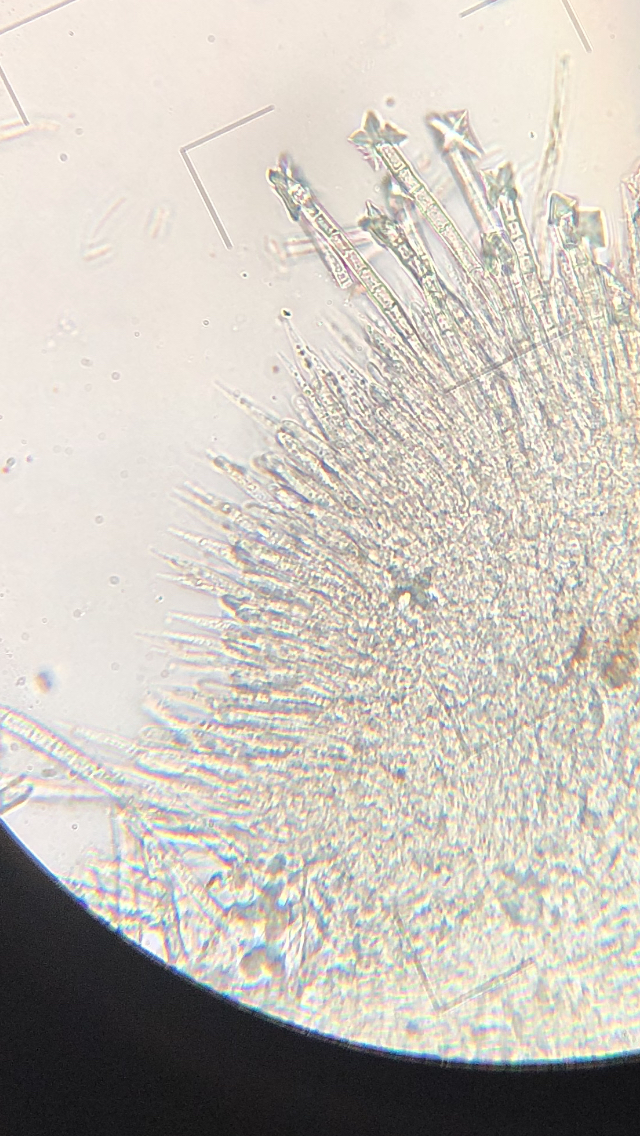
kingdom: Fungi
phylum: Ascomycota
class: Leotiomycetes
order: Helotiales
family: Lachnaceae
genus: Incrucipulum
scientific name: Incrucipulum sulphurellum
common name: pors-frynseskive
